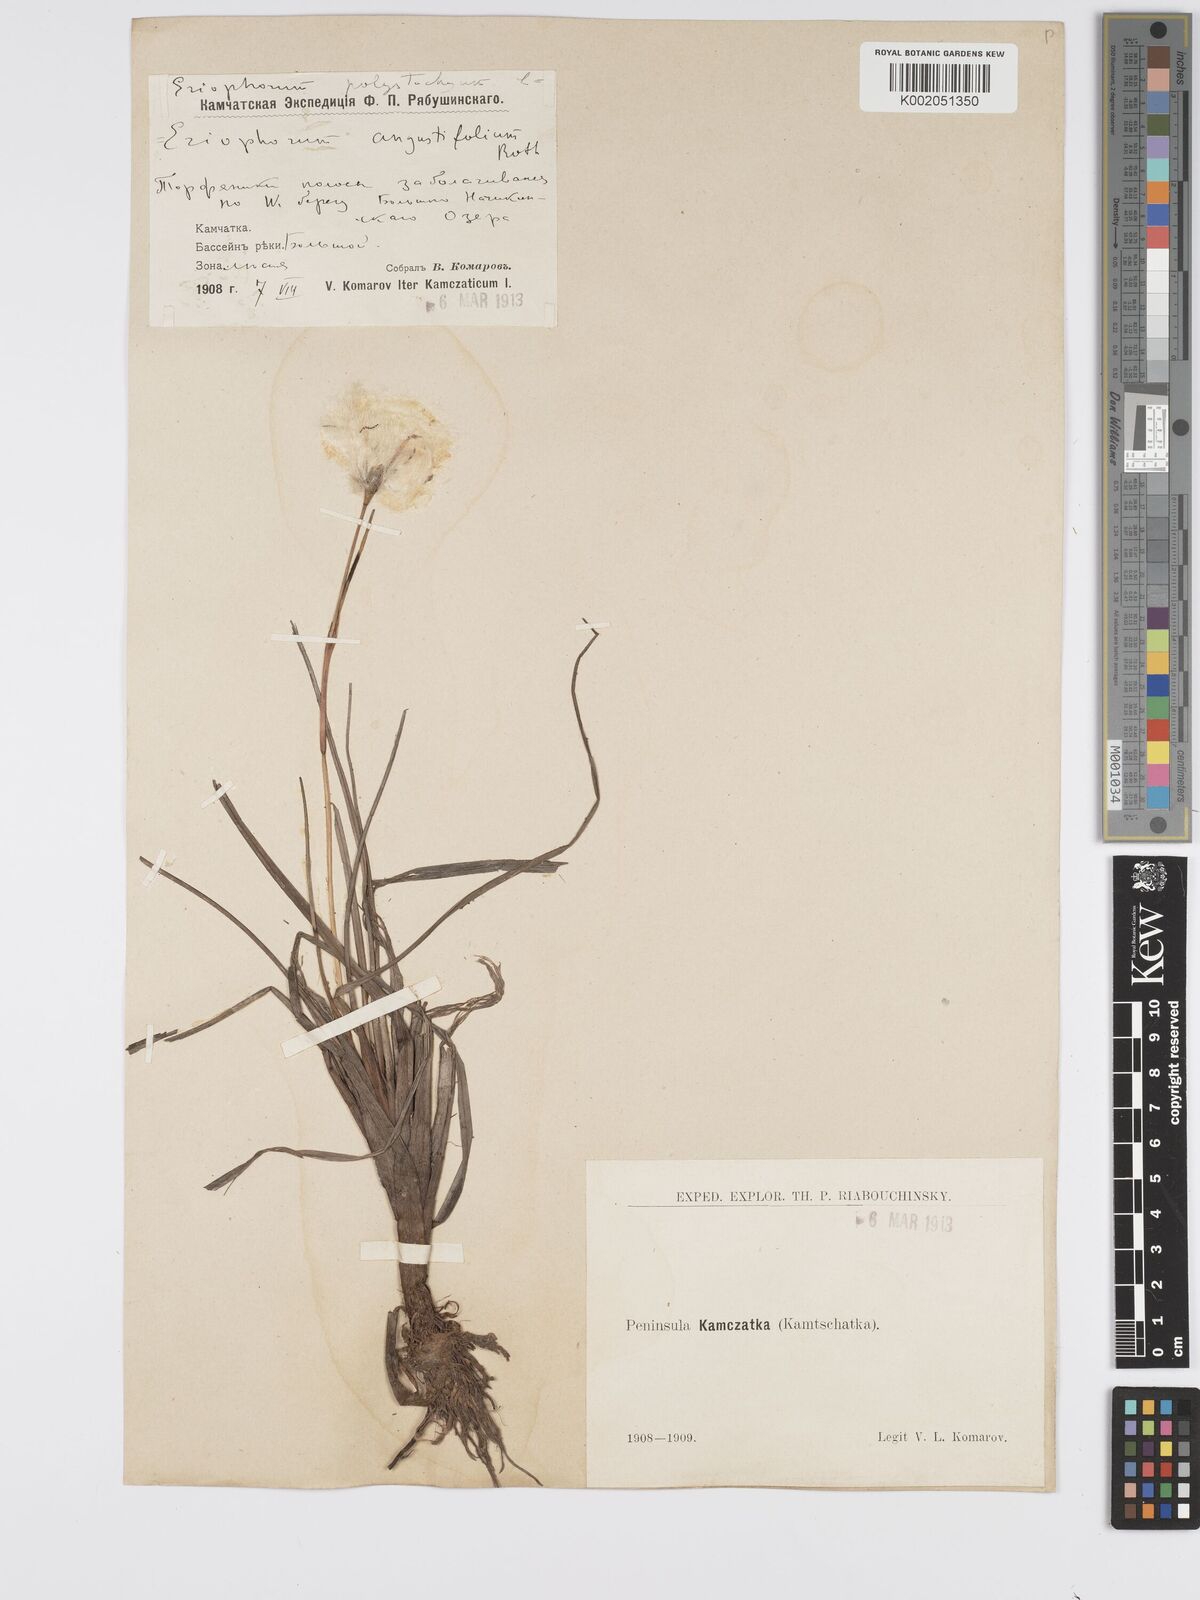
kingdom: Plantae
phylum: Tracheophyta
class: Liliopsida
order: Poales
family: Cyperaceae
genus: Eriophorum
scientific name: Eriophorum angustifolium
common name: Common cottongrass
